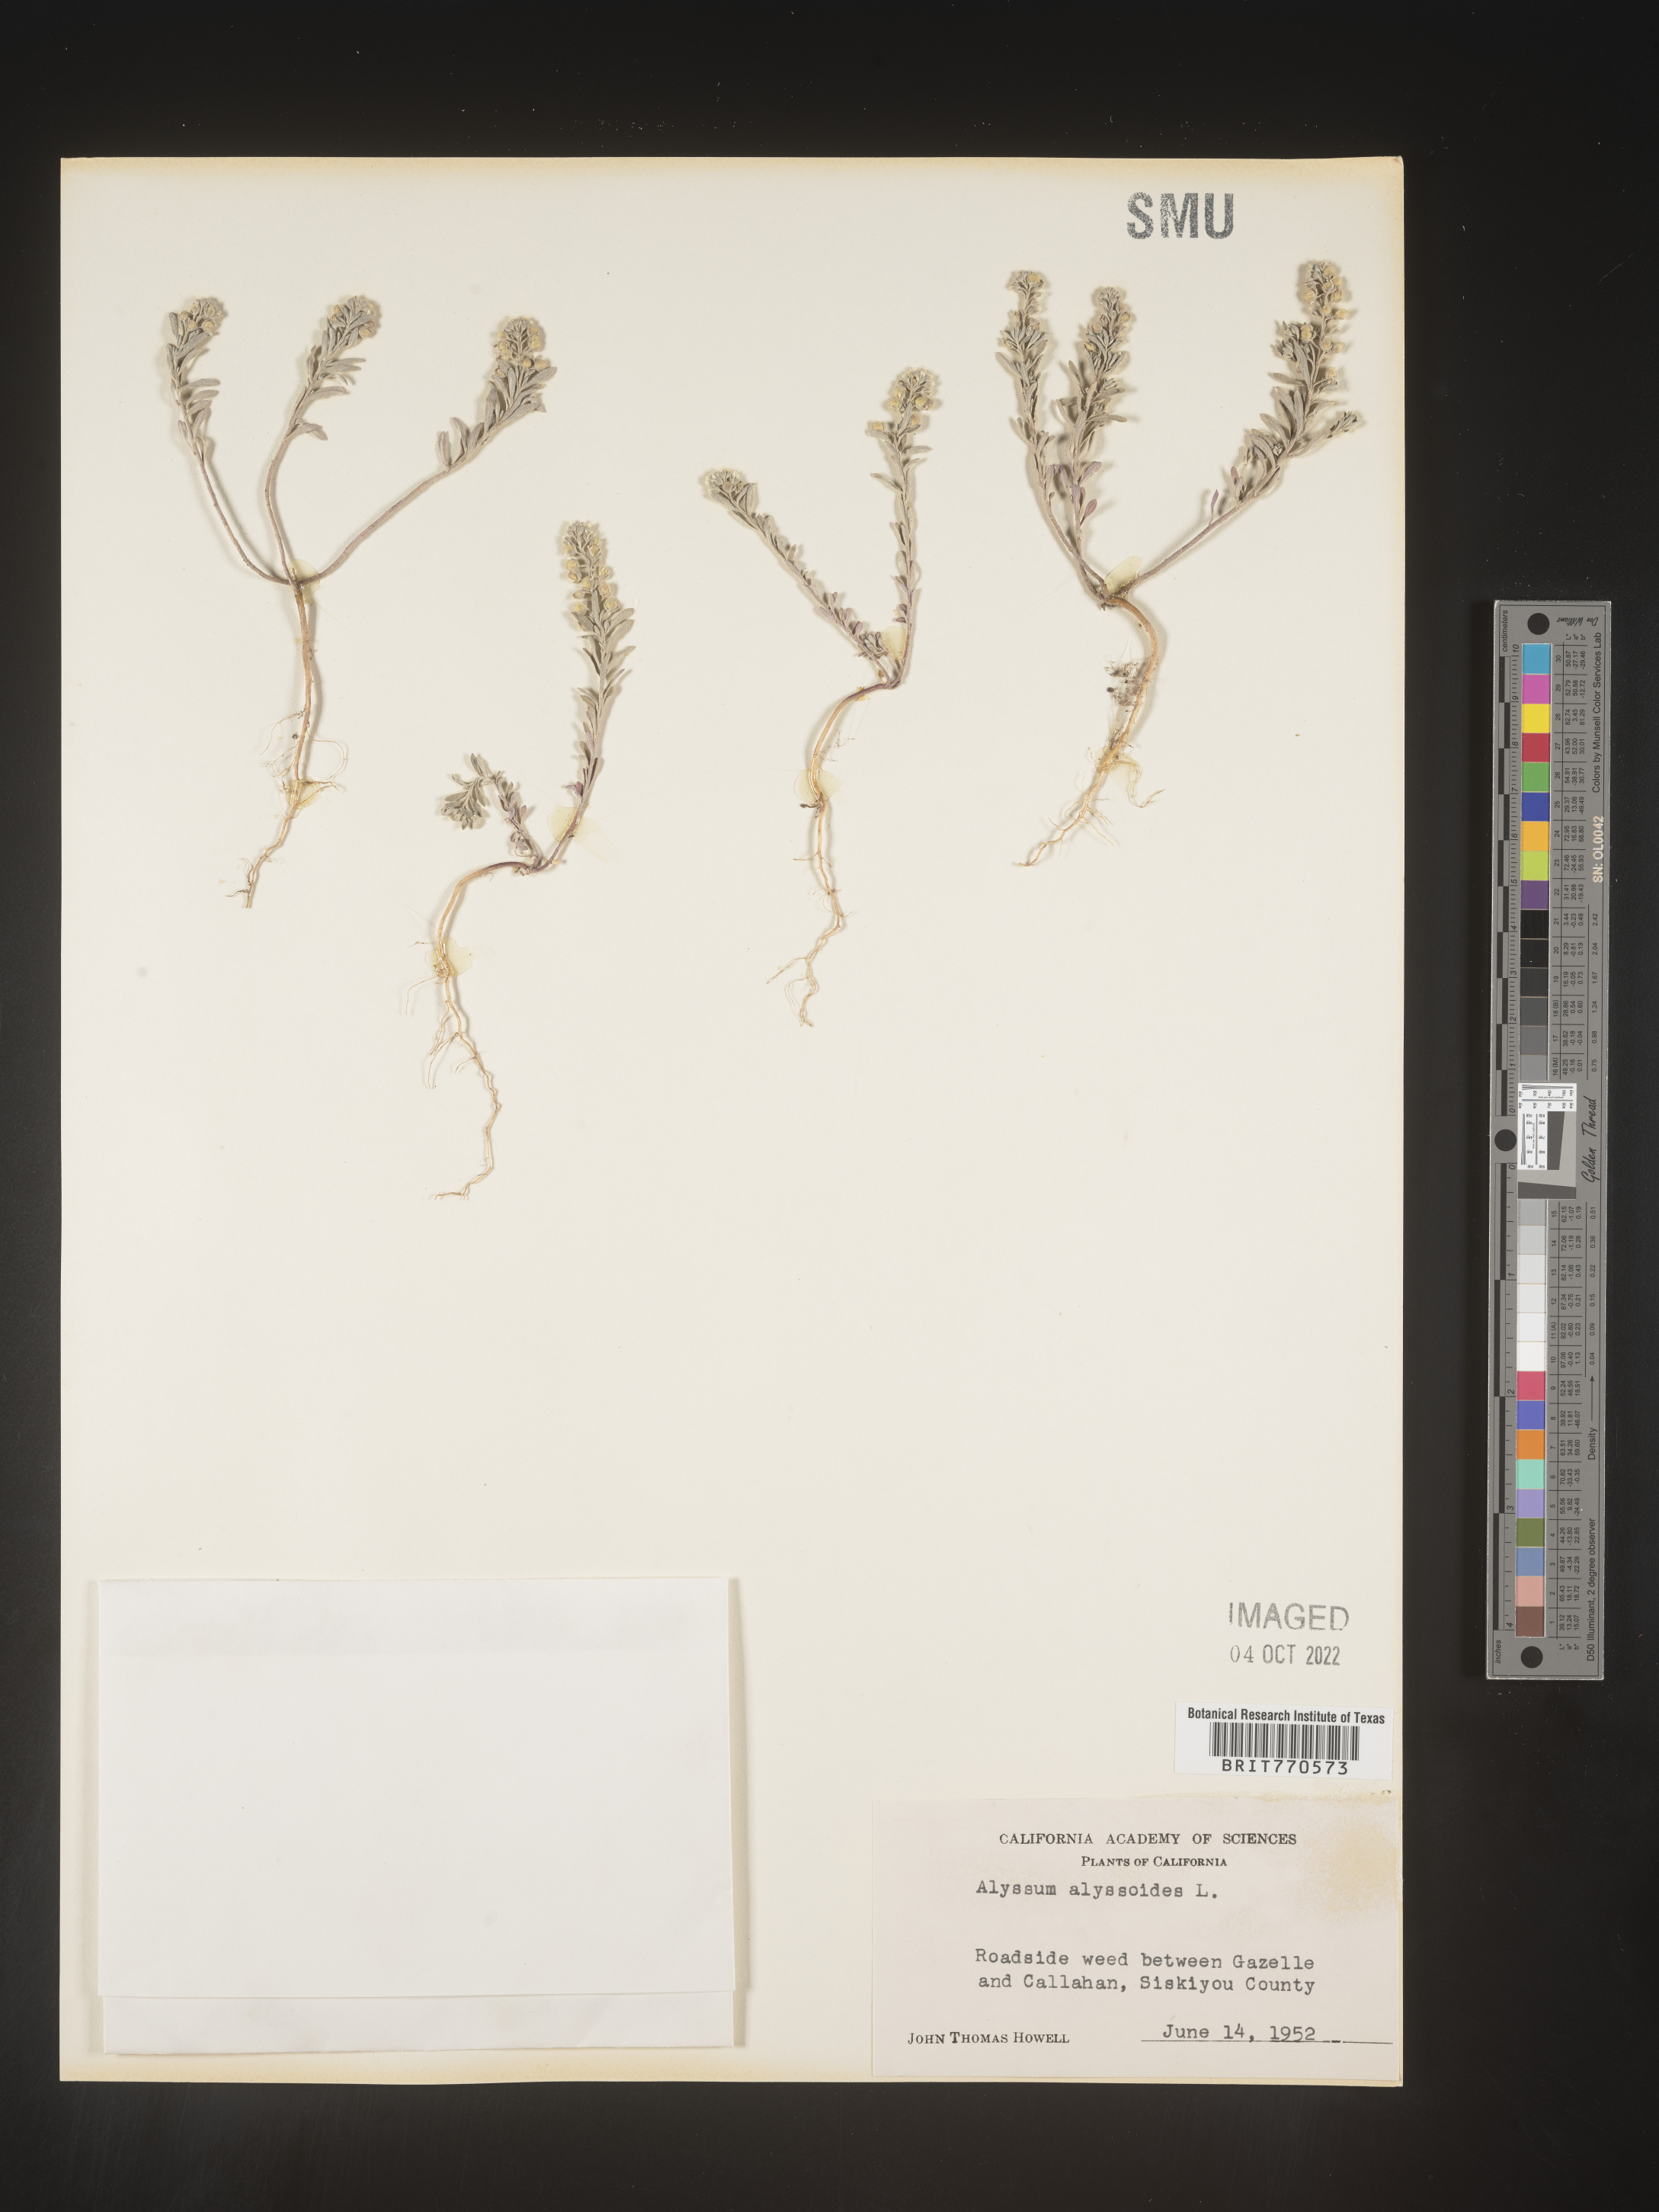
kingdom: Plantae
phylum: Tracheophyta
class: Magnoliopsida
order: Brassicales
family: Brassicaceae
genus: Alyssum
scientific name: Alyssum alyssoides
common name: Small alison
